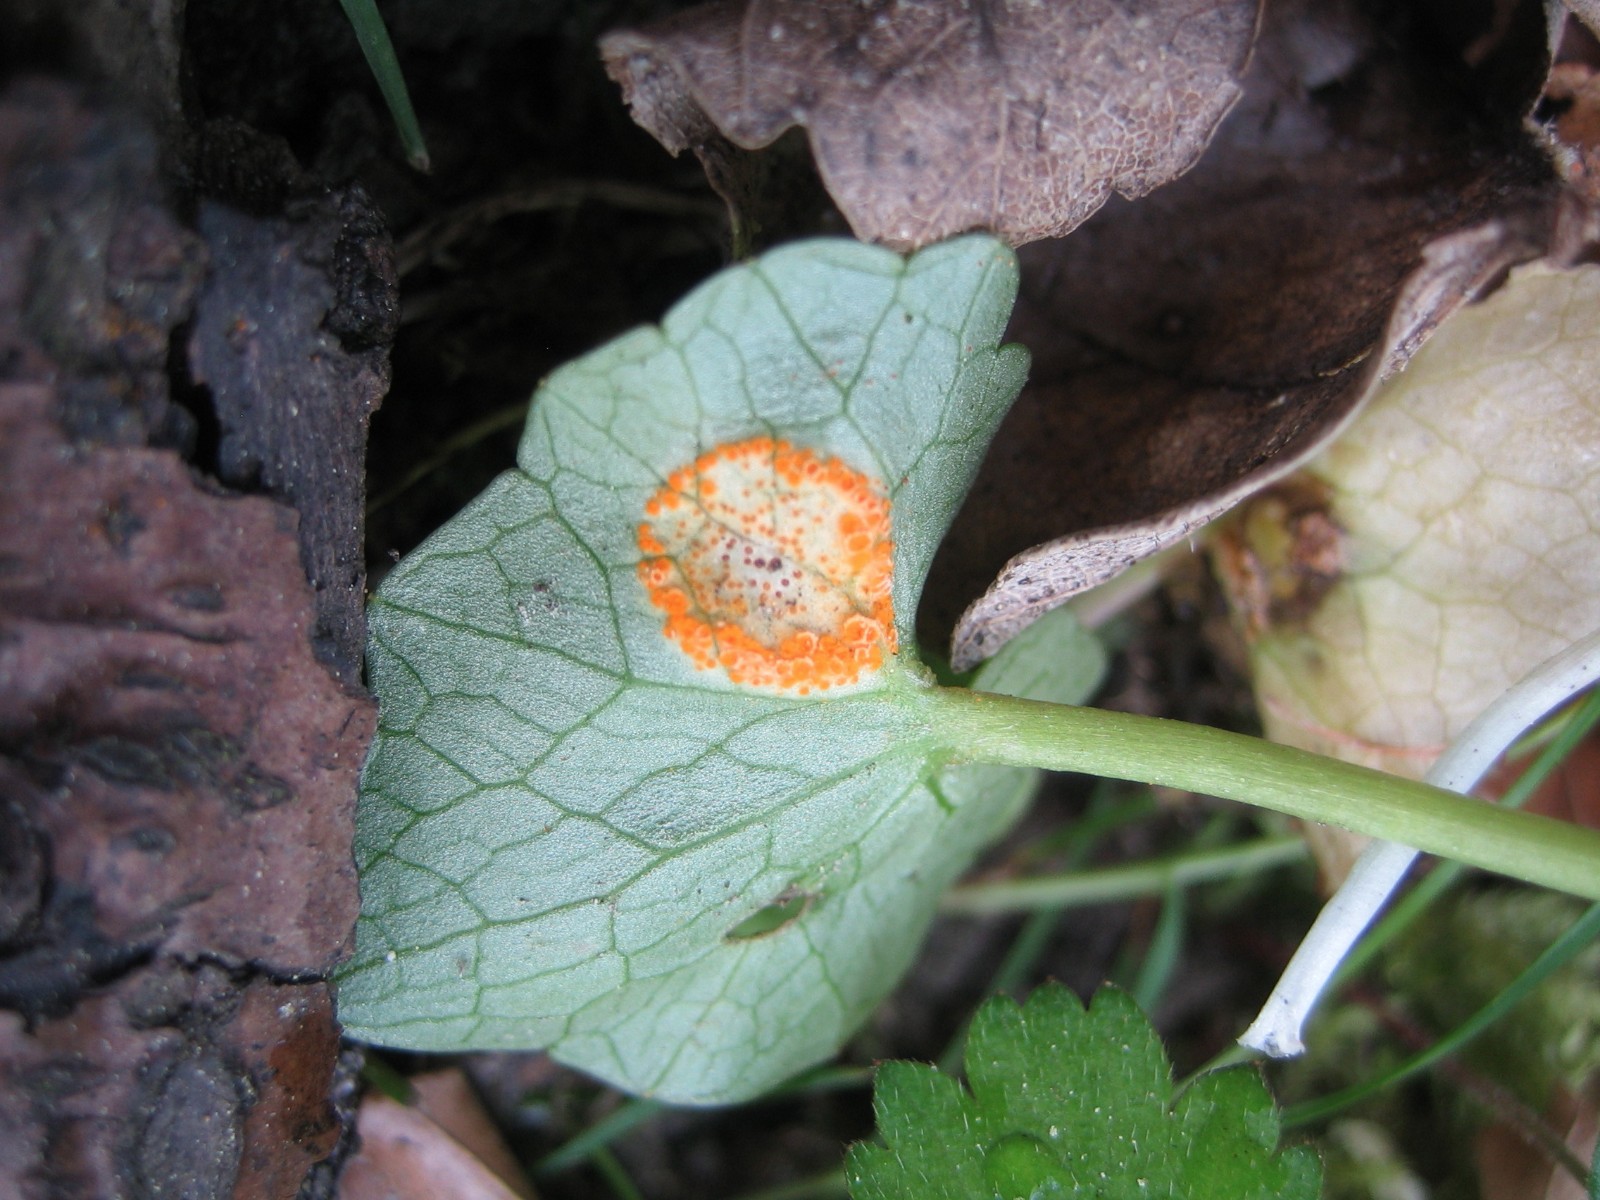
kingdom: Fungi
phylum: Basidiomycota
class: Pucciniomycetes
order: Pucciniales
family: Pucciniaceae
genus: Uromyces
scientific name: Uromyces dactylidis
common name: ranunkel-encellerust
